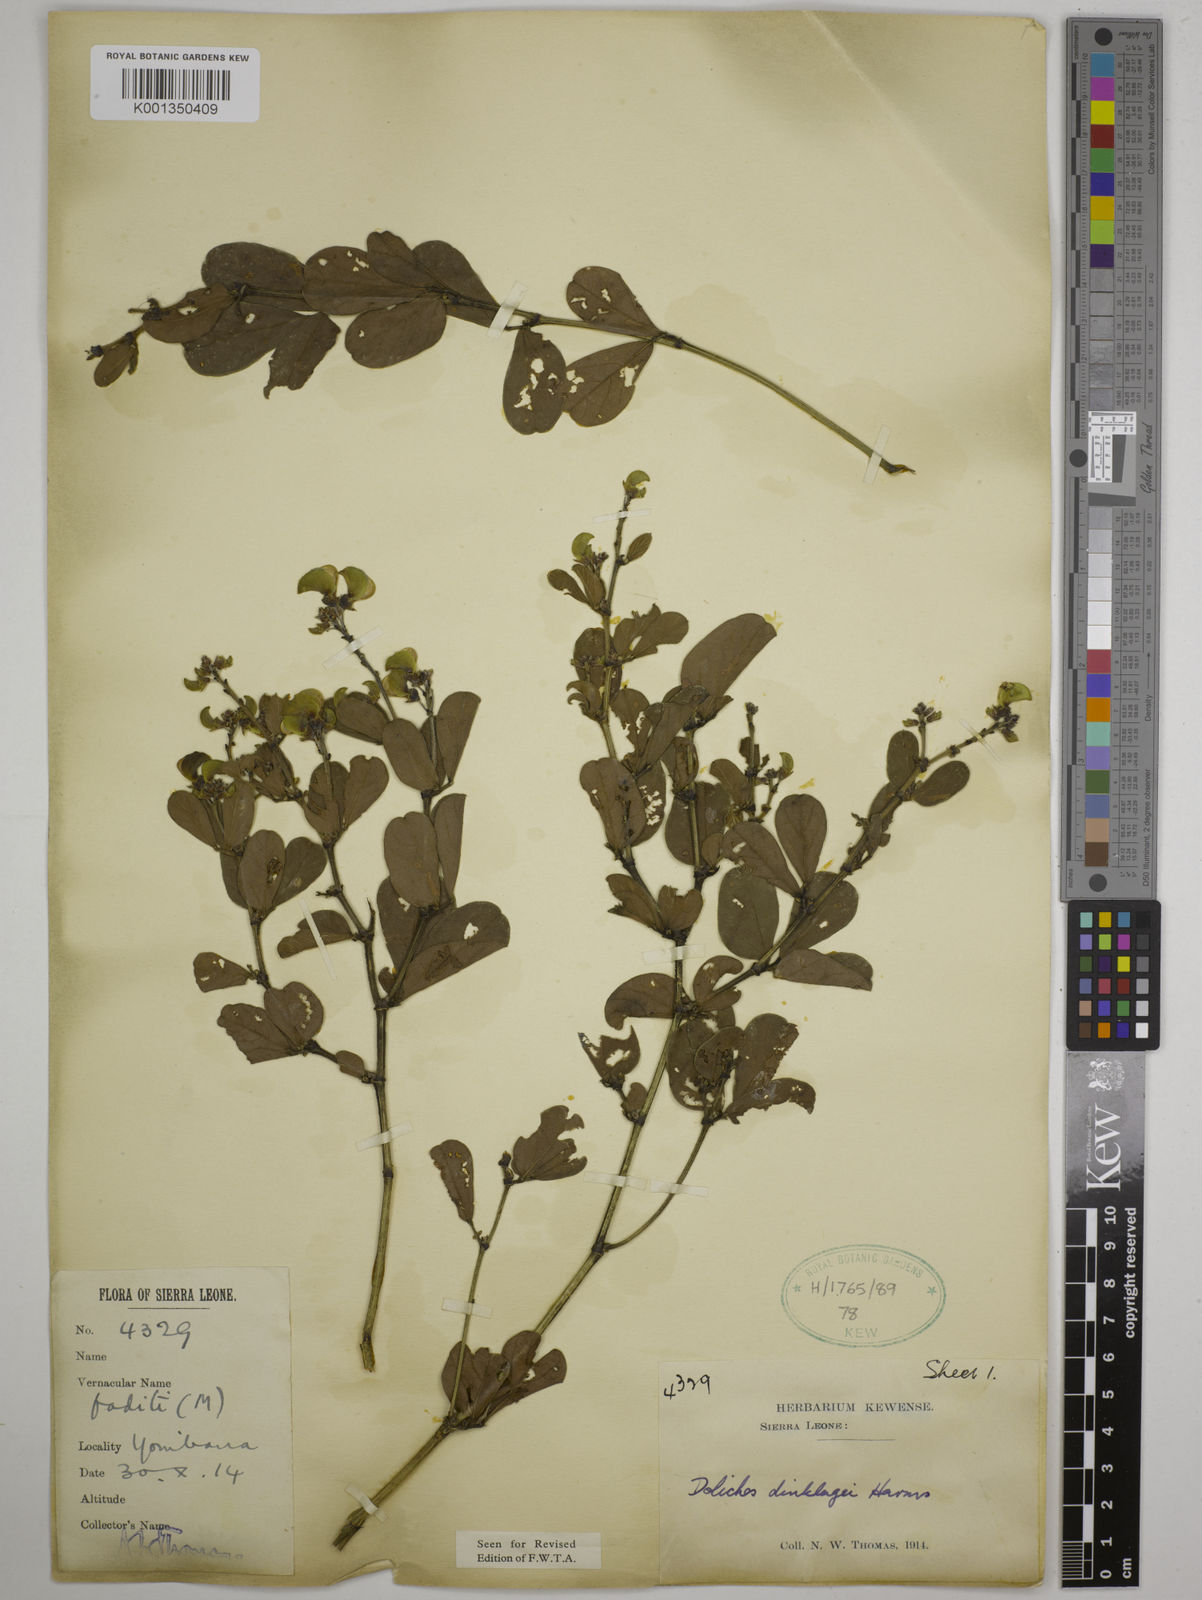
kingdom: Plantae
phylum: Tracheophyta
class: Magnoliopsida
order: Fabales
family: Fabaceae
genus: Dolichos
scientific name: Dolichos dinklagei
